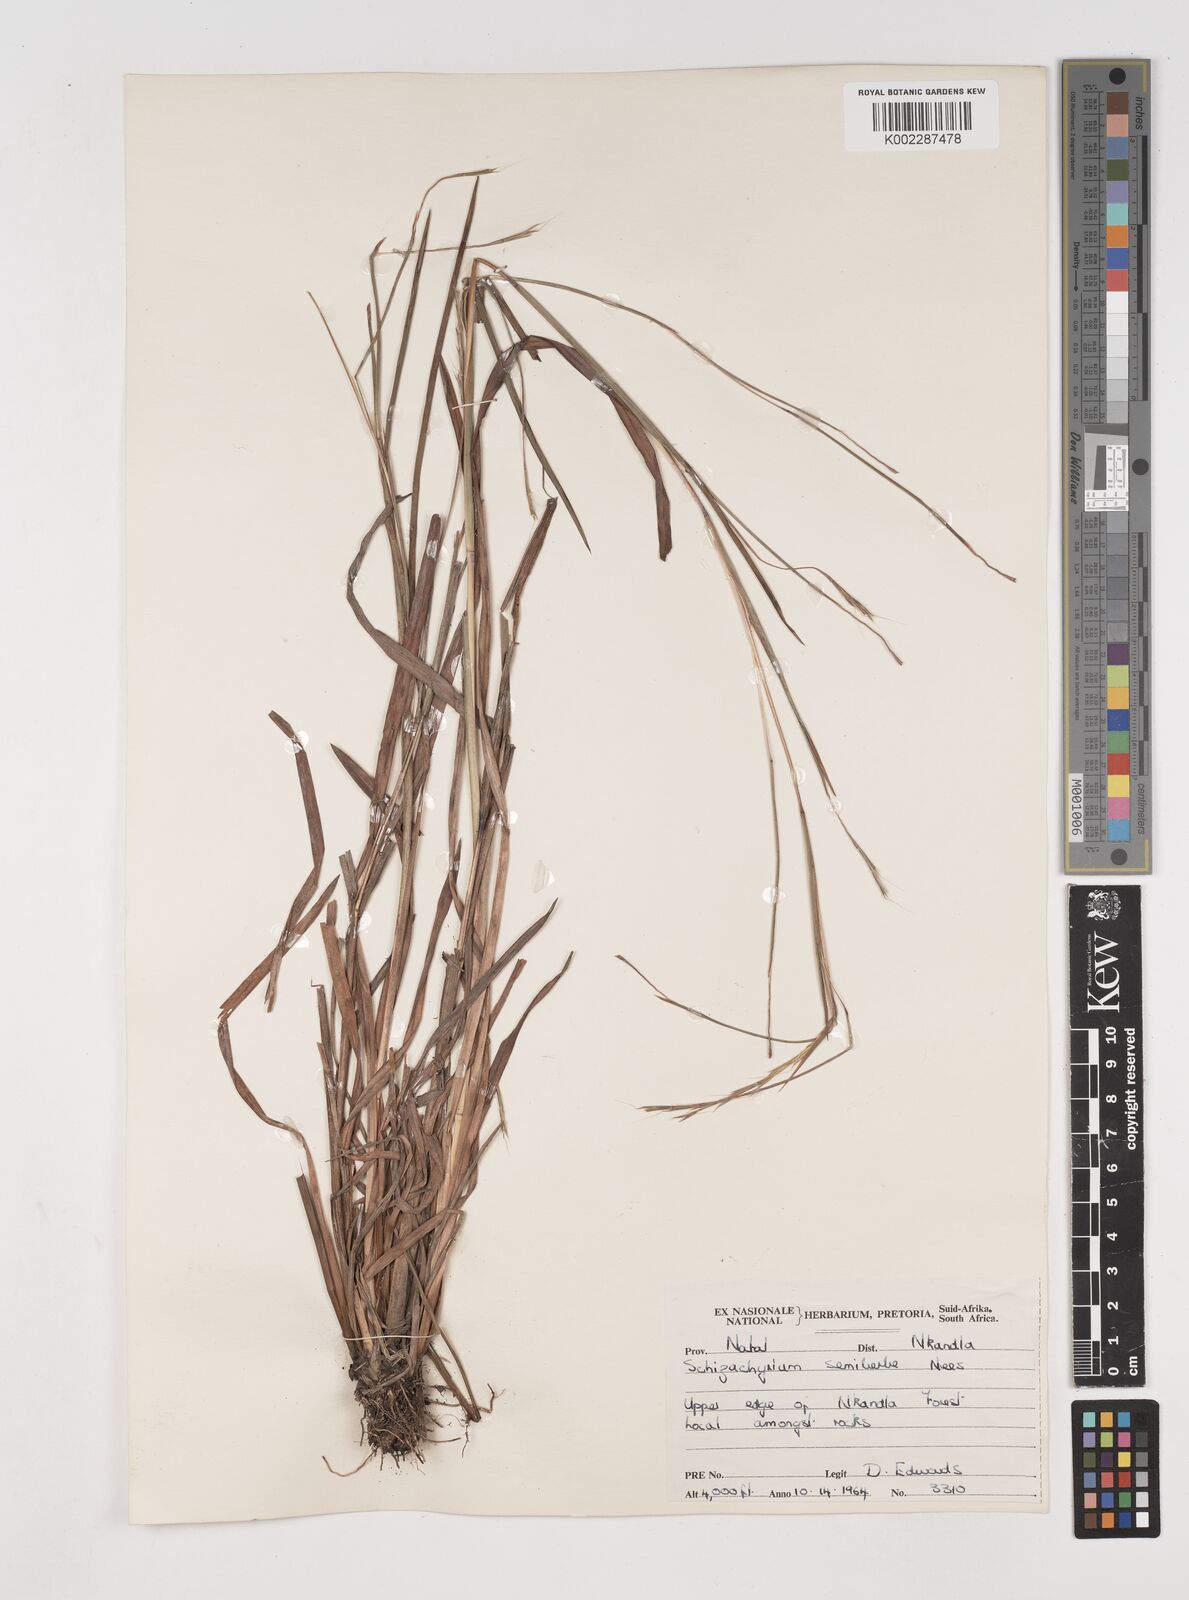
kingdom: Plantae
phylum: Tracheophyta
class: Liliopsida
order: Poales
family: Poaceae
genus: Schizachyrium
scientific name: Schizachyrium sanguineum
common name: Crimson bluestem
